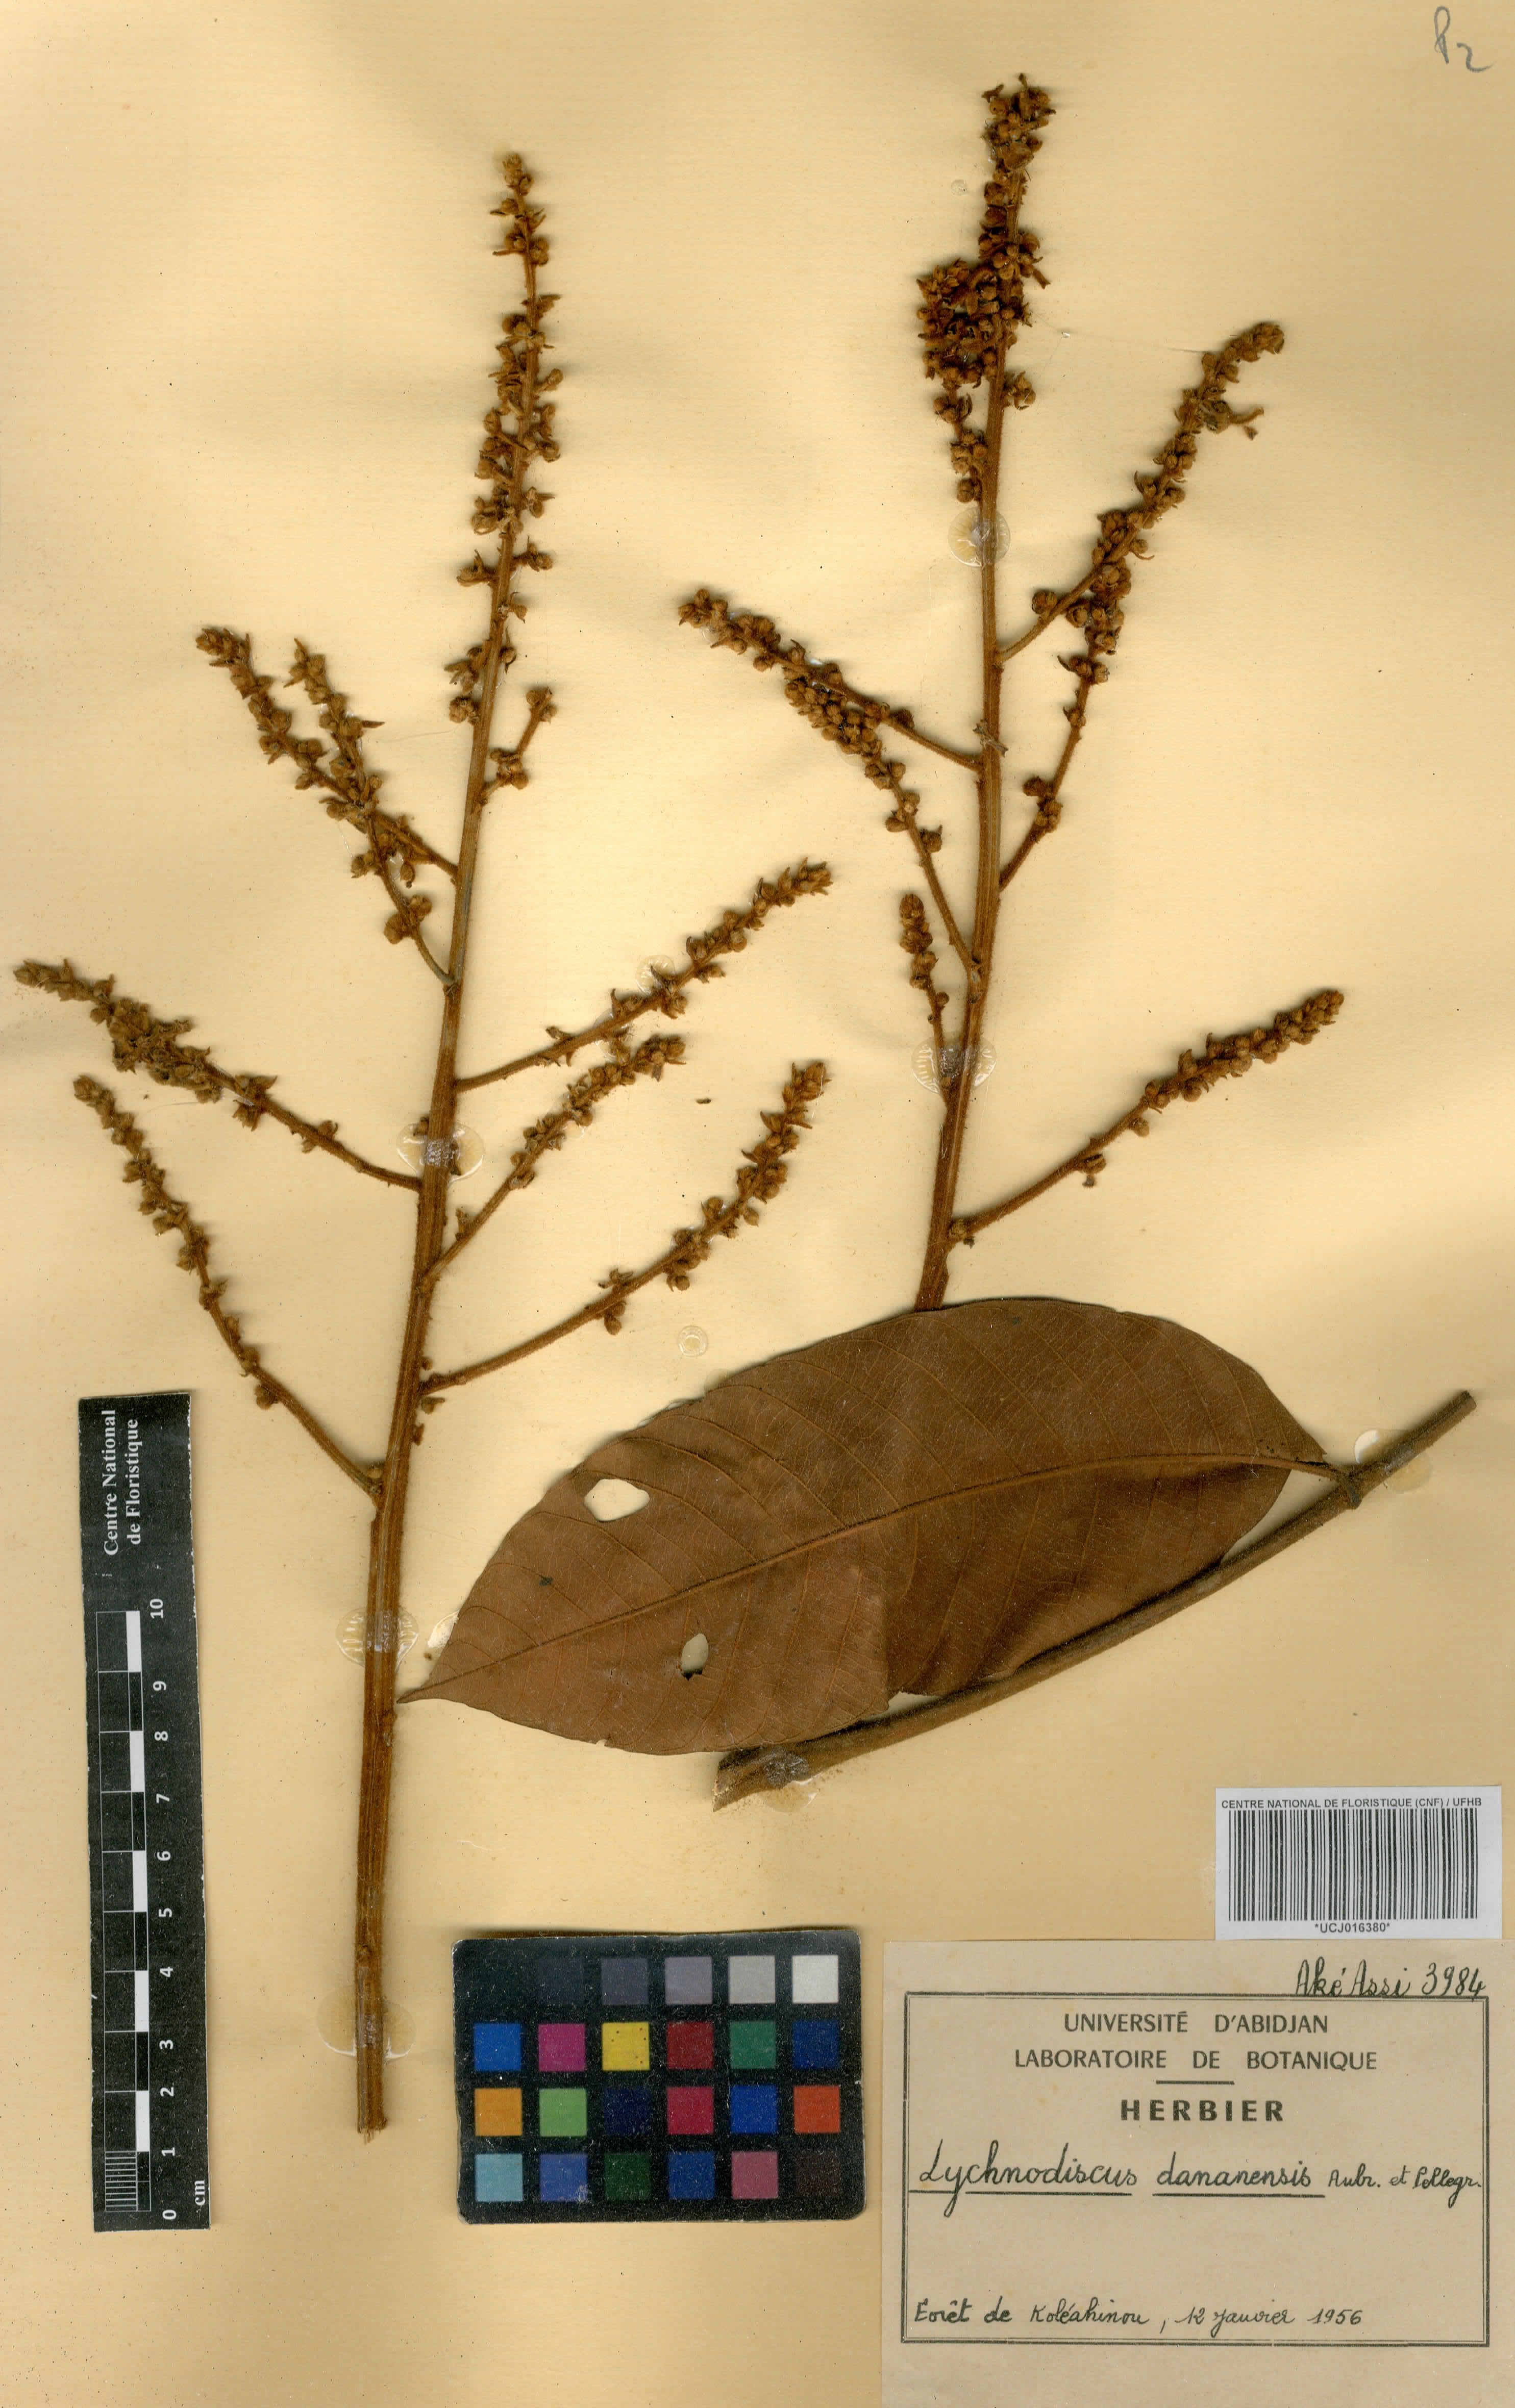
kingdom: Plantae
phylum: Tracheophyta
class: Magnoliopsida
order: Sapindales
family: Sapindaceae
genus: Lychnodiscus
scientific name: Lychnodiscus dananensis
